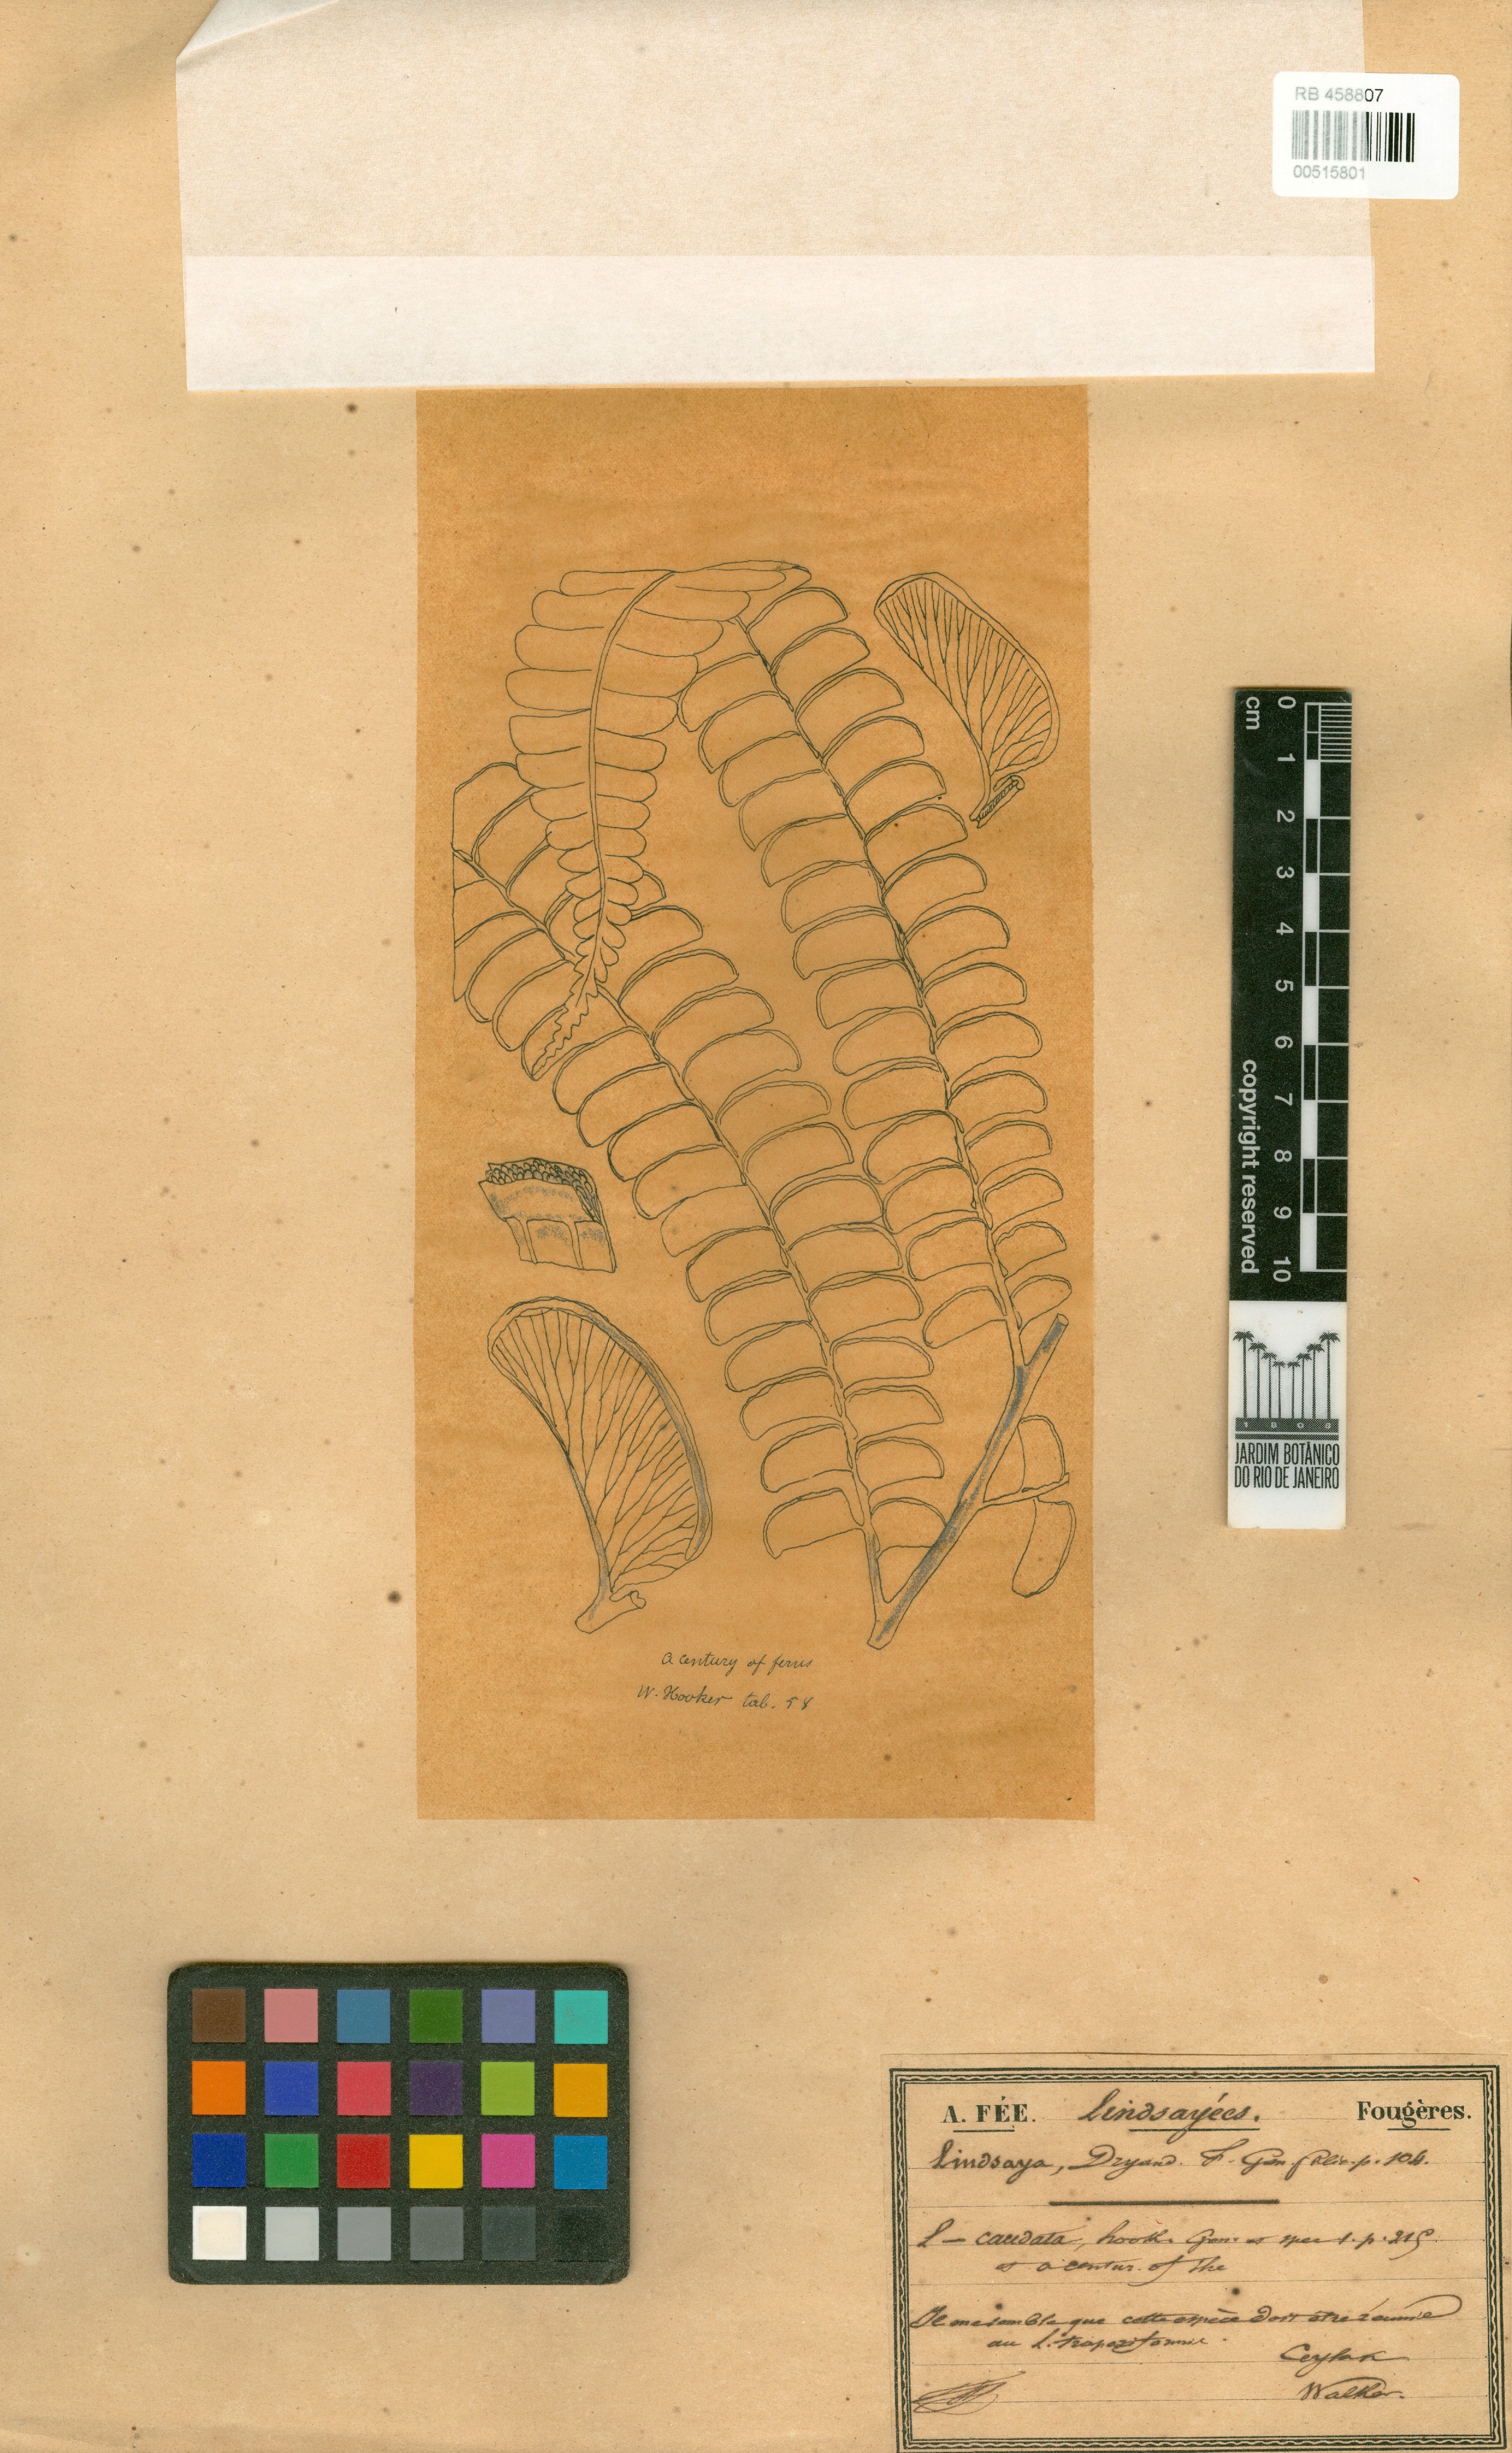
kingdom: Plantae
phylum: Tracheophyta
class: Polypodiopsida
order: Polypodiales
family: Lindsaeaceae
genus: Nesolindsaea
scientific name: Nesolindsaea caudata
